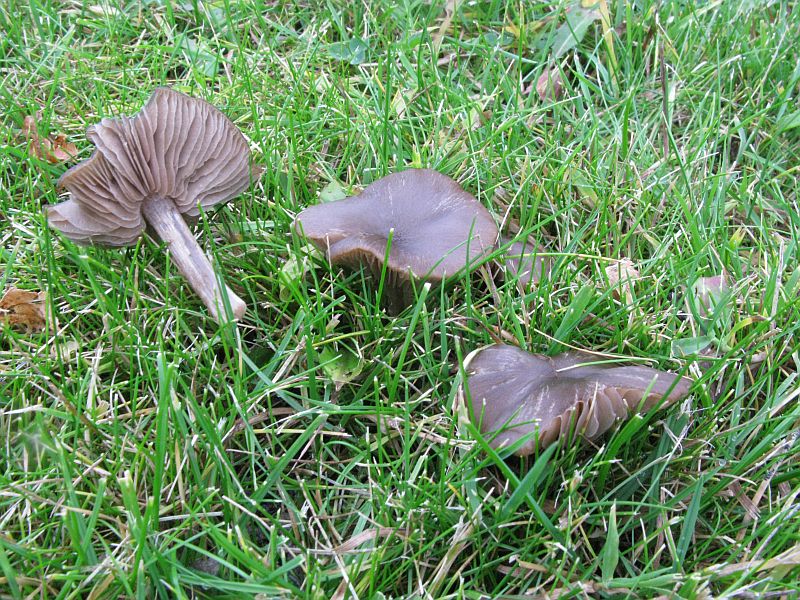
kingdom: Fungi
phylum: Basidiomycota
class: Agaricomycetes
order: Agaricales
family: Entolomataceae
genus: Entoloma
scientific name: Entoloma sericeum
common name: silkeglinsende rødblad
